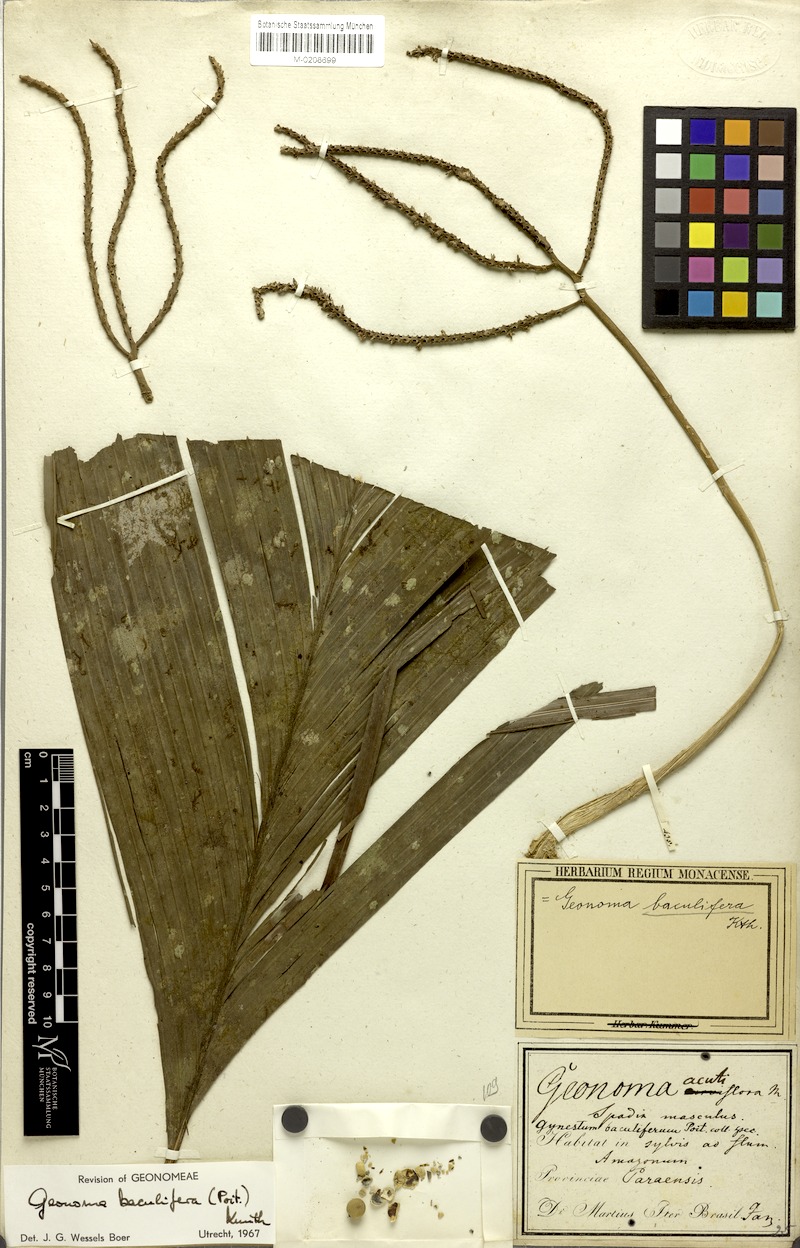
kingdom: Plantae
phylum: Tracheophyta
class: Liliopsida
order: Arecales
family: Arecaceae
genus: Geonoma
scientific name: Geonoma baculifera
